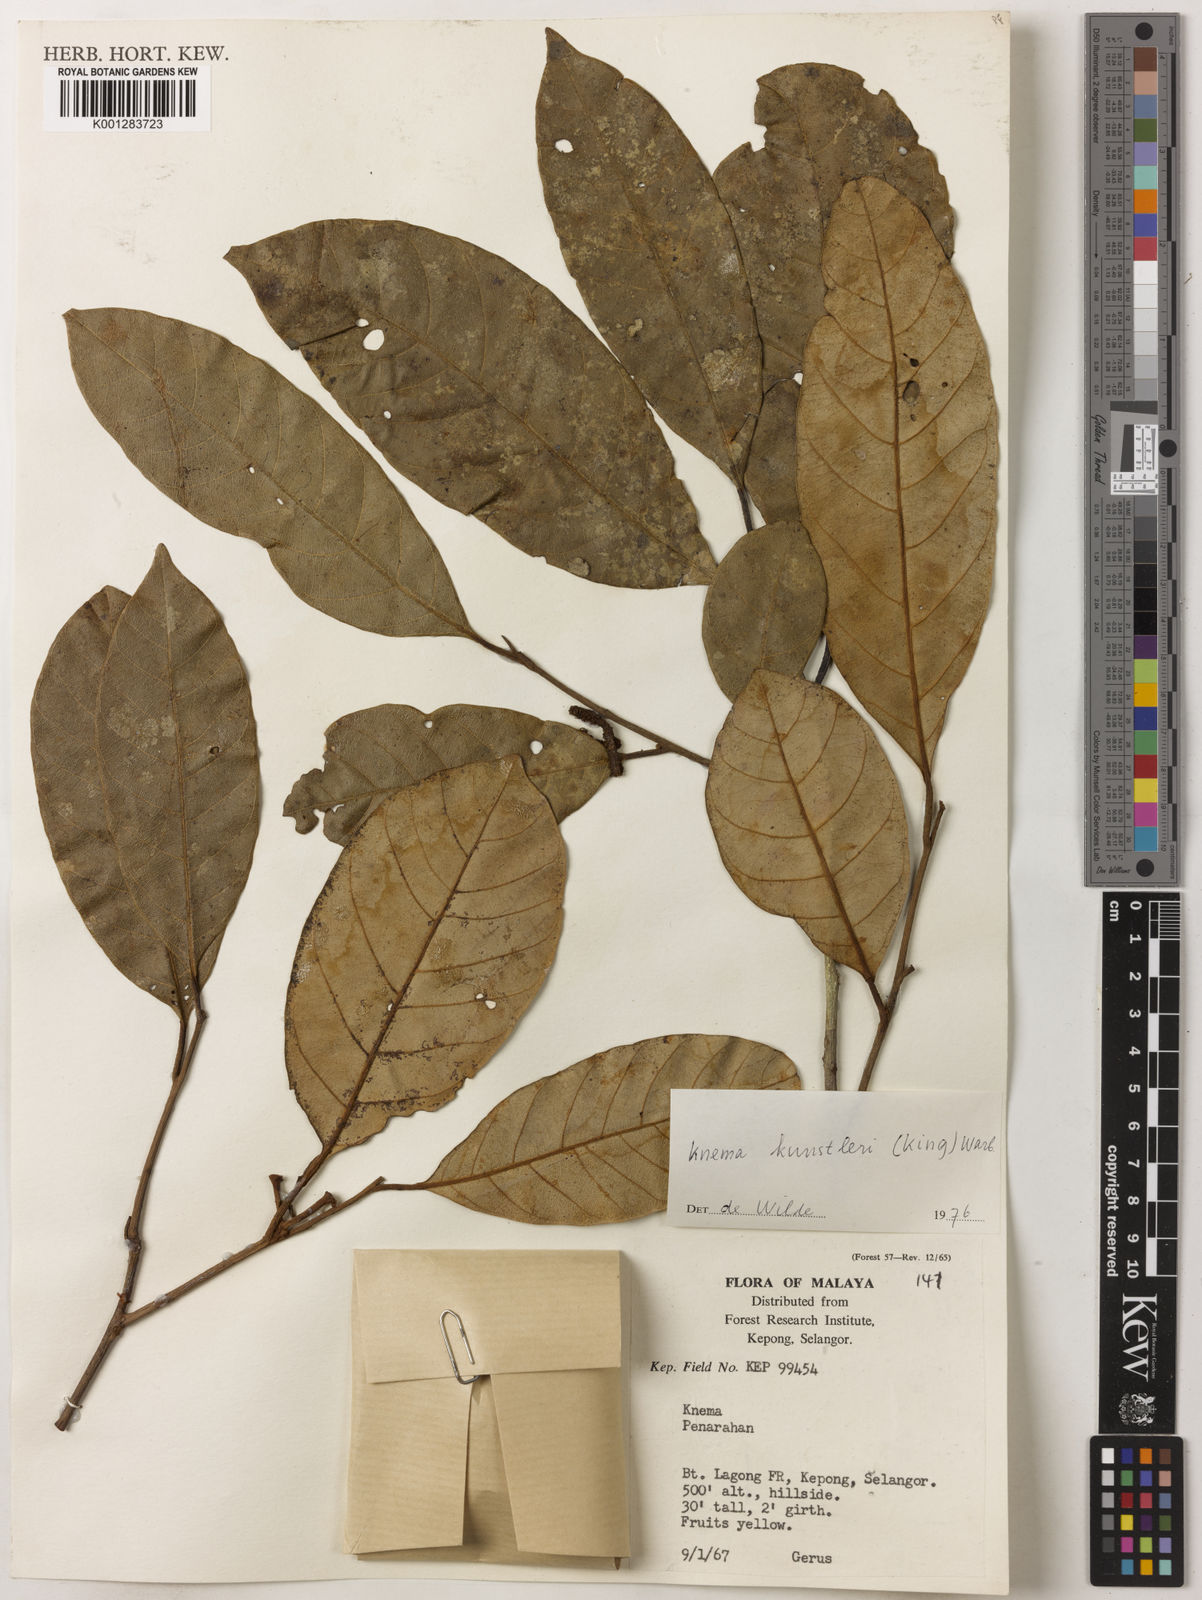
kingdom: Plantae
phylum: Tracheophyta
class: Magnoliopsida
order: Magnoliales
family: Myristicaceae
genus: Knema
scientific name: Knema kunstleri
